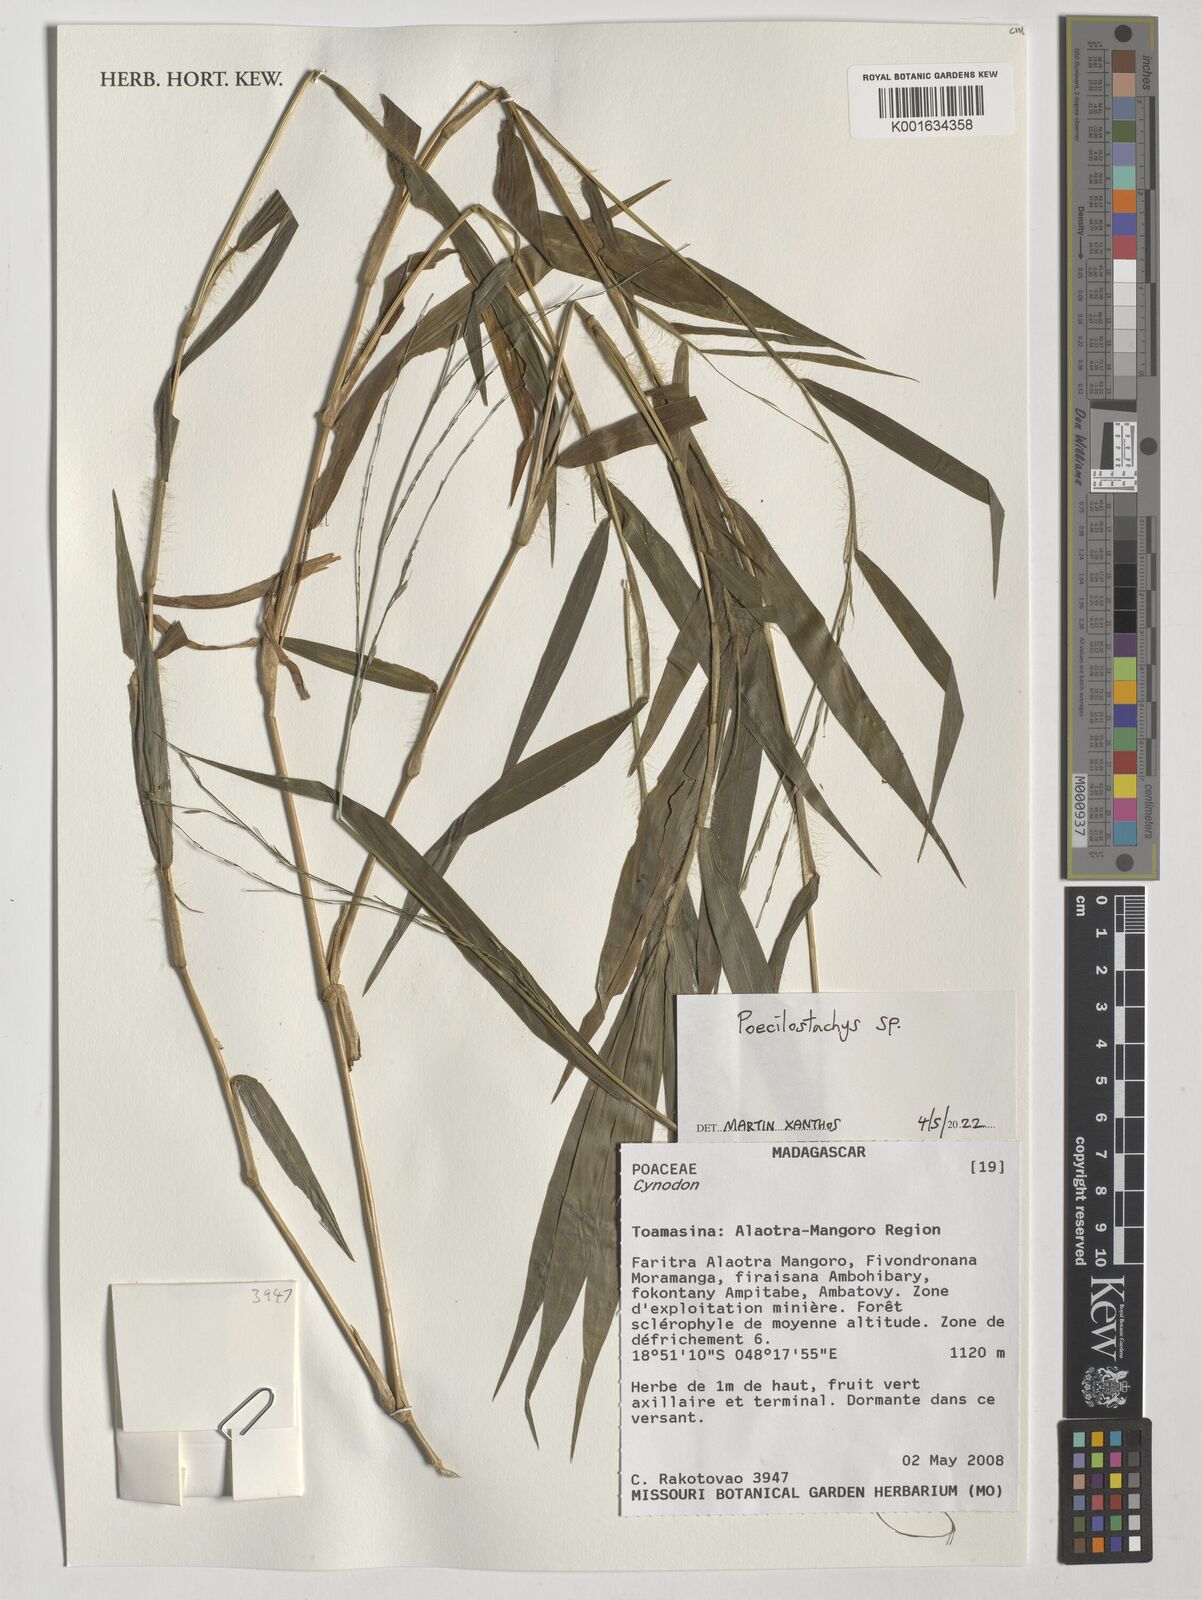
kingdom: Plantae
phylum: Tracheophyta
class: Liliopsida
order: Poales
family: Poaceae
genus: Poecilostachys
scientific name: Poecilostachys
